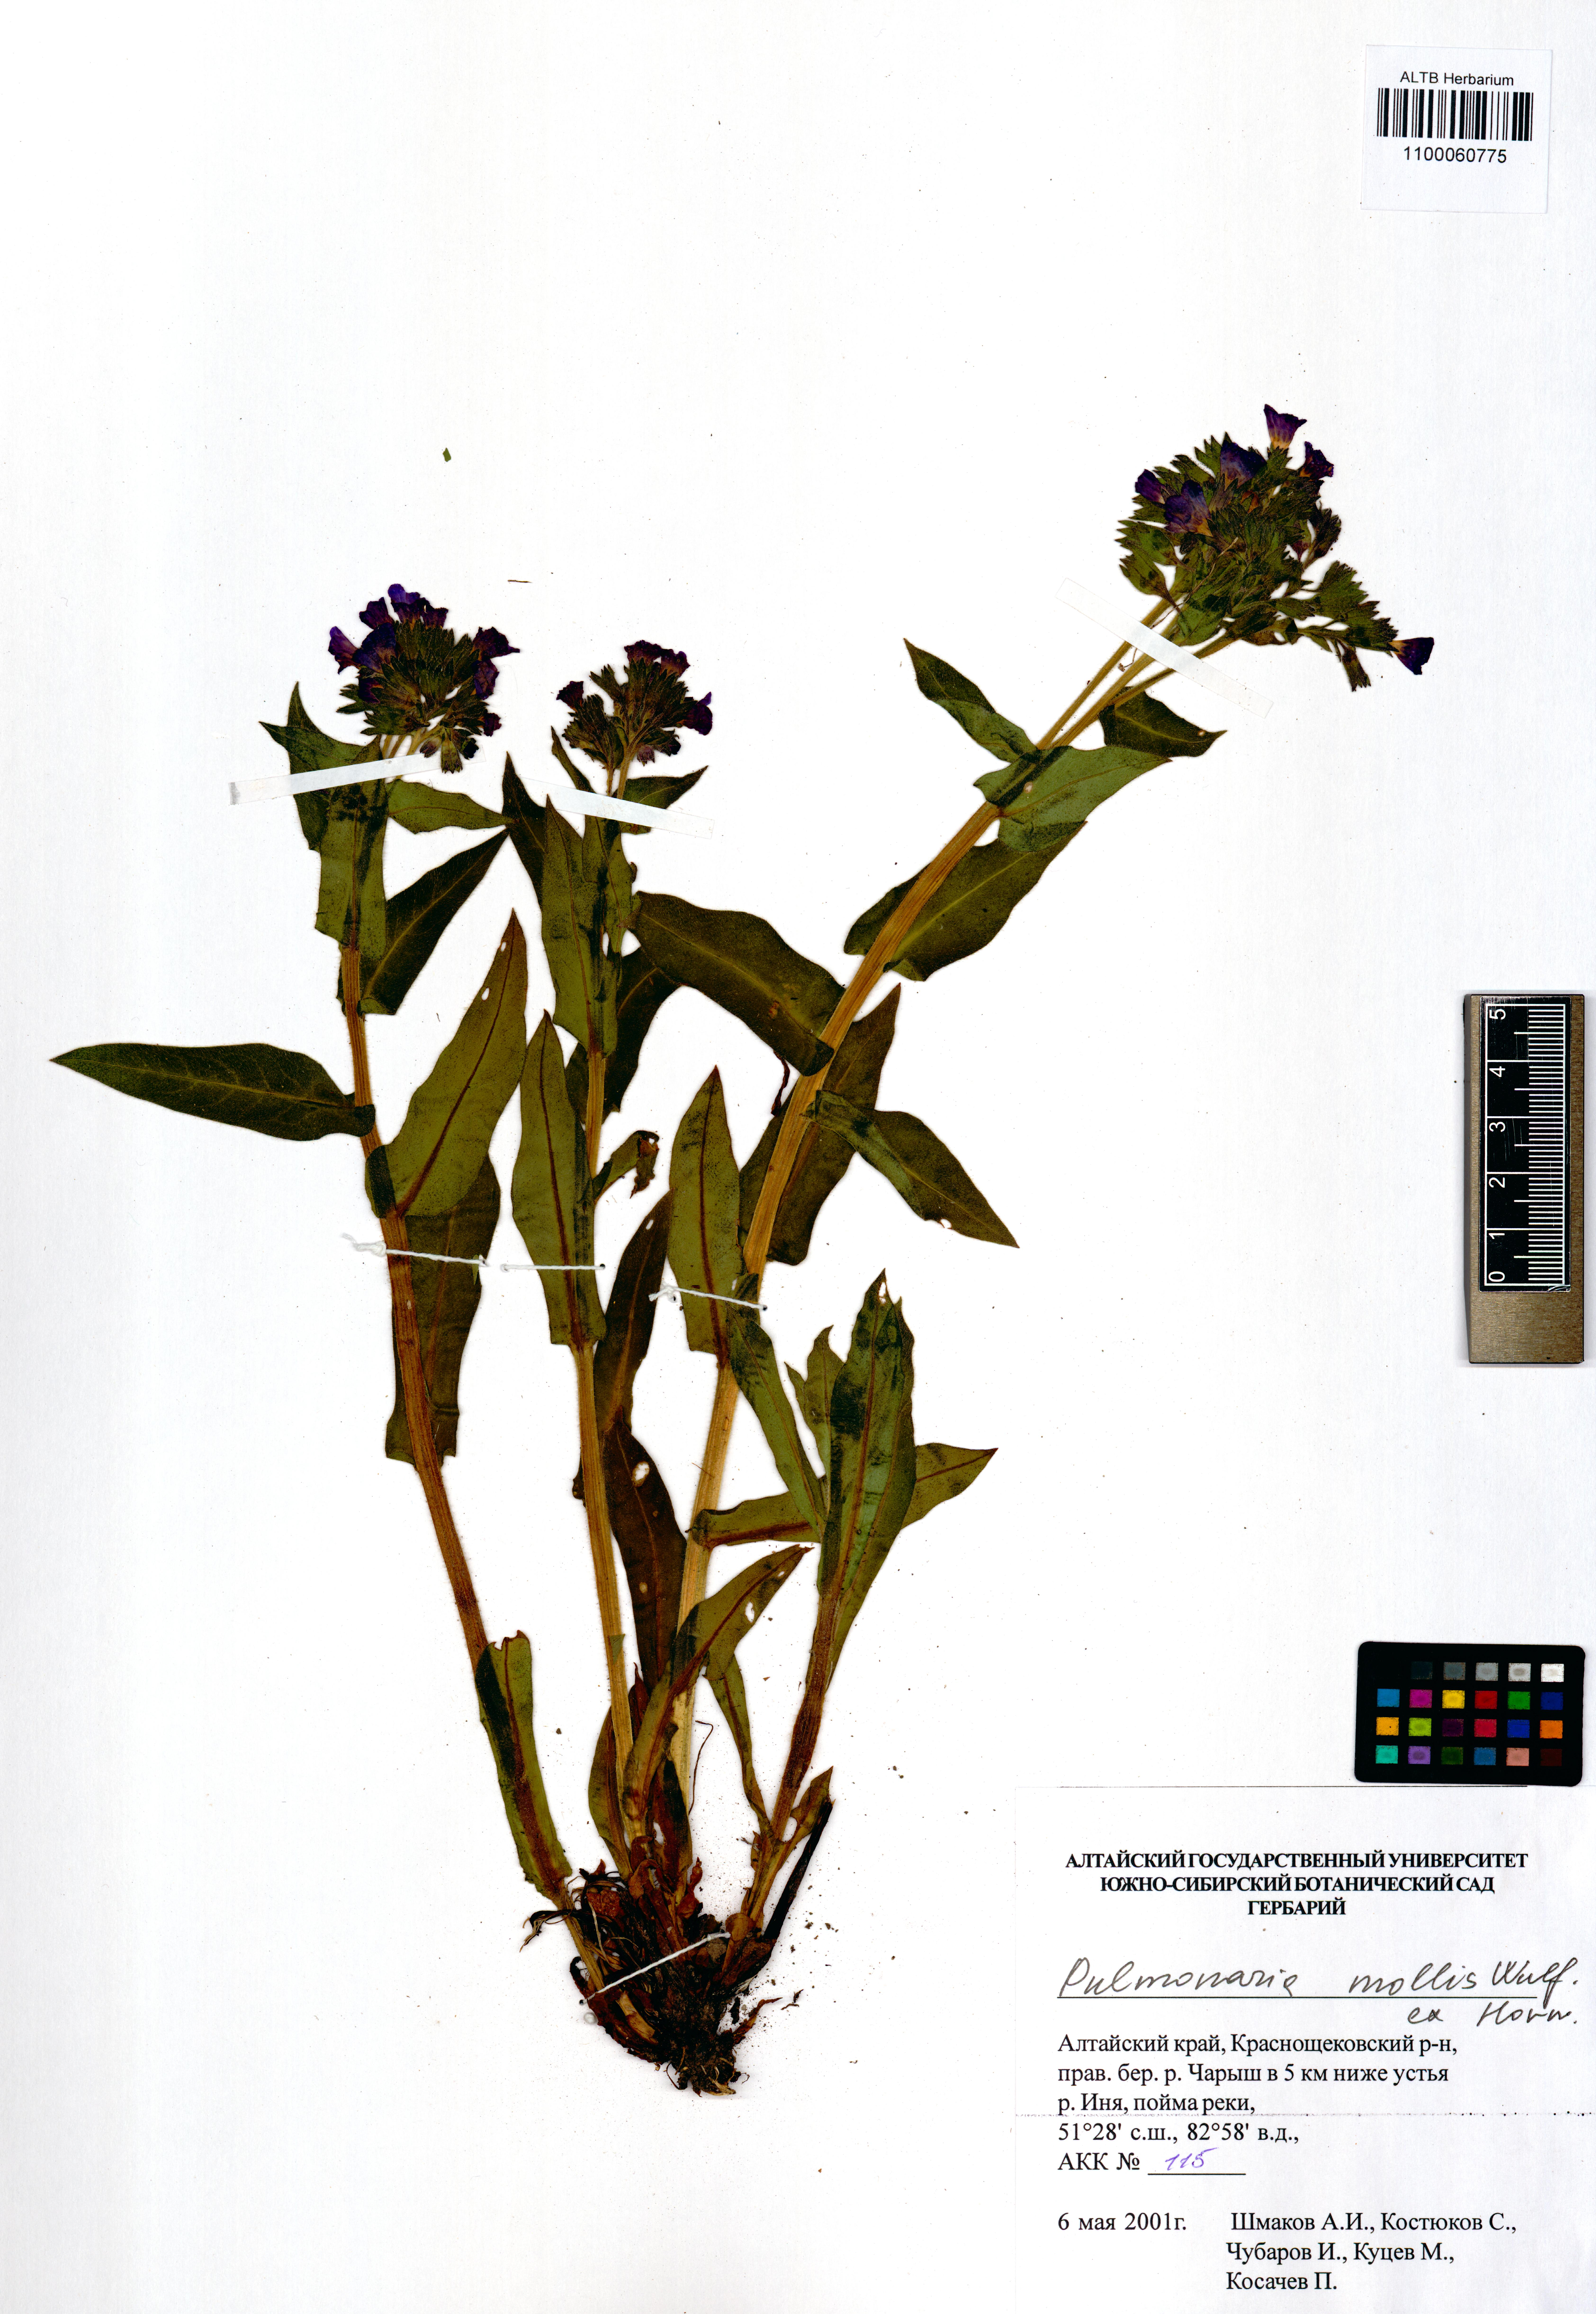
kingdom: Plantae
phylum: Tracheophyta
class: Magnoliopsida
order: Boraginales
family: Boraginaceae
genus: Pulmonaria
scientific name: Pulmonaria mollis
